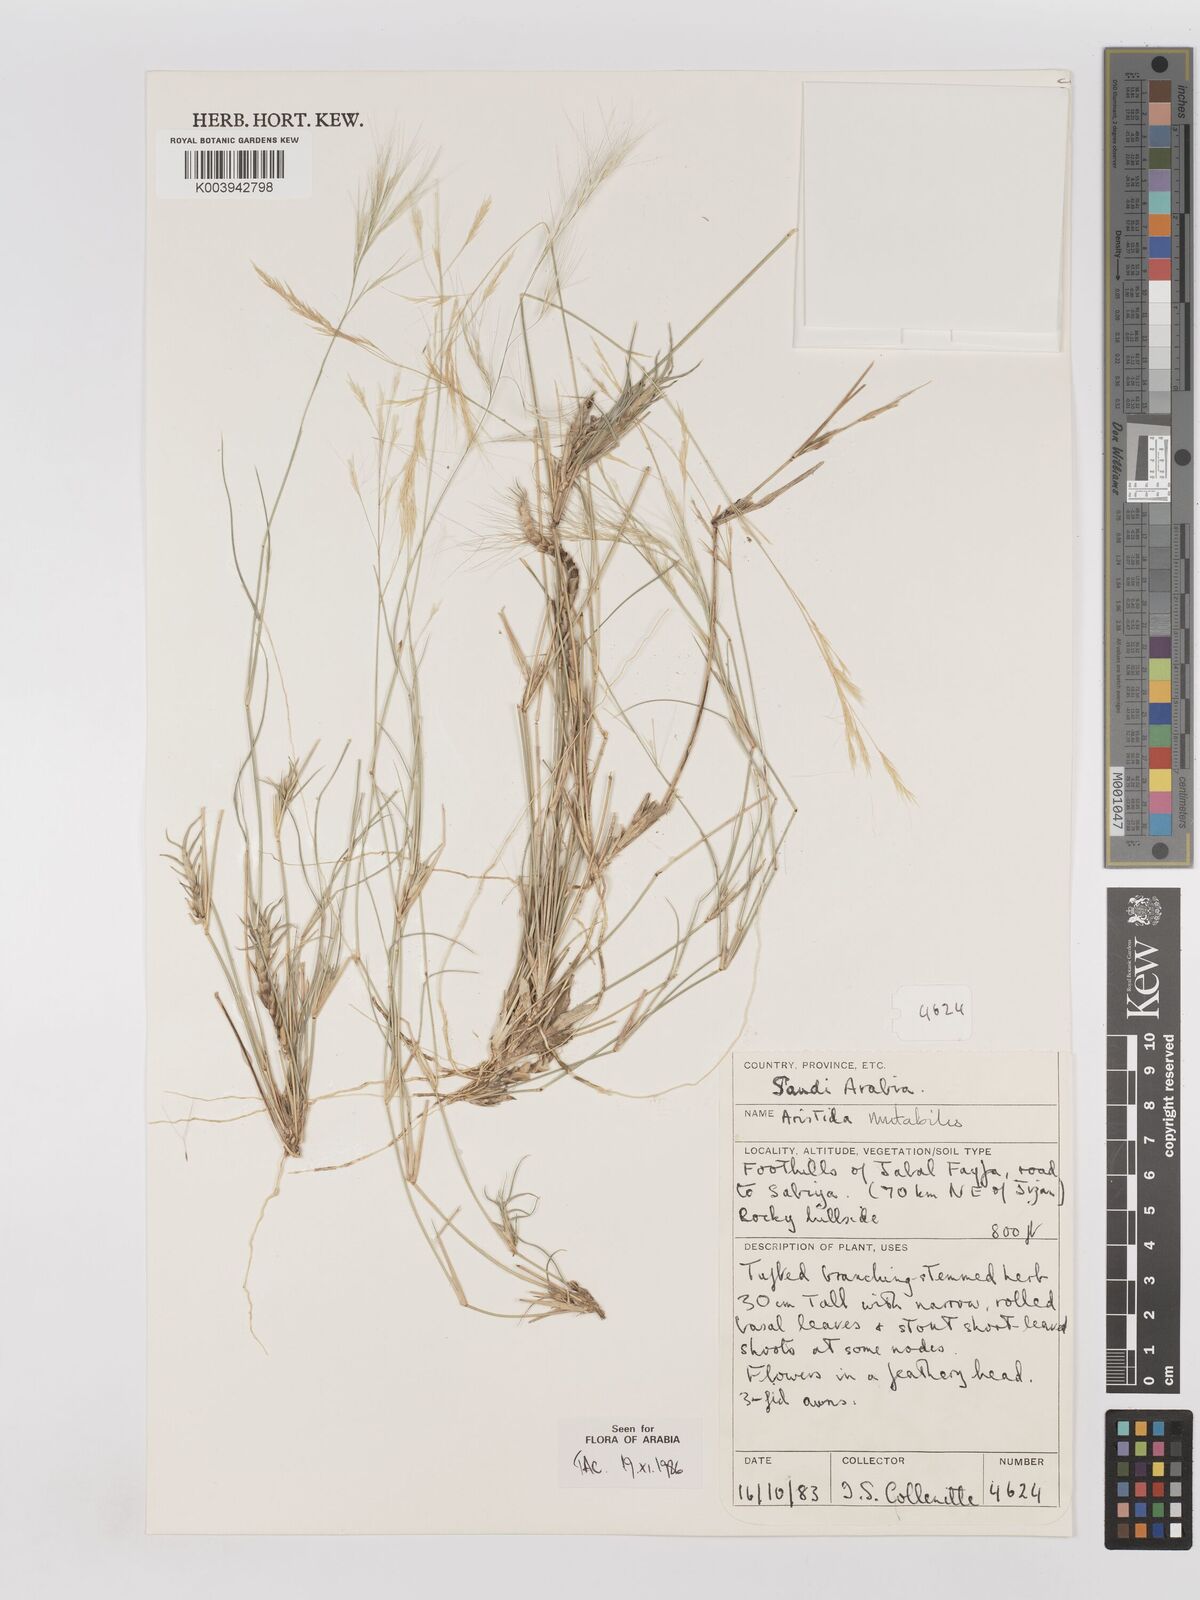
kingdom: Plantae
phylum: Tracheophyta
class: Liliopsida
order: Poales
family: Poaceae
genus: Aristida
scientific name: Aristida mutabilis
